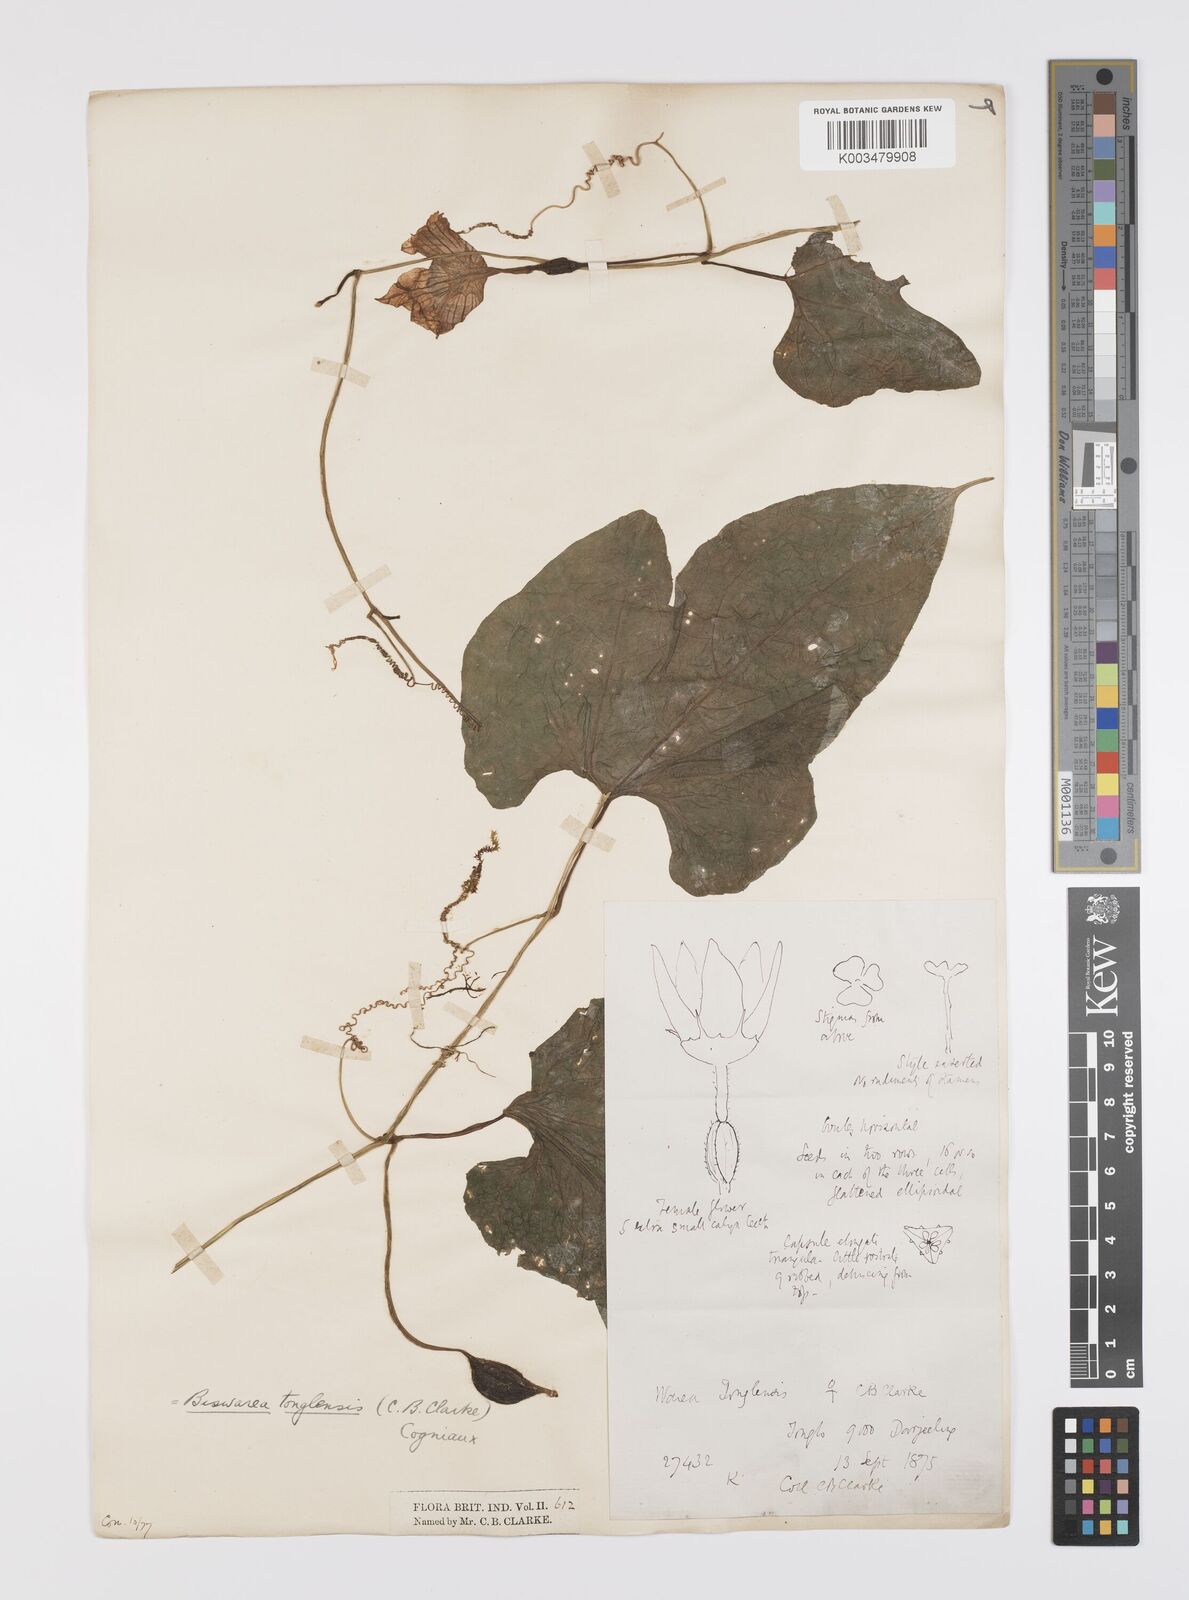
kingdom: Plantae
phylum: Tracheophyta
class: Magnoliopsida
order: Cucurbitales
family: Cucurbitaceae
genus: Benincasa
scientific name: Benincasa
